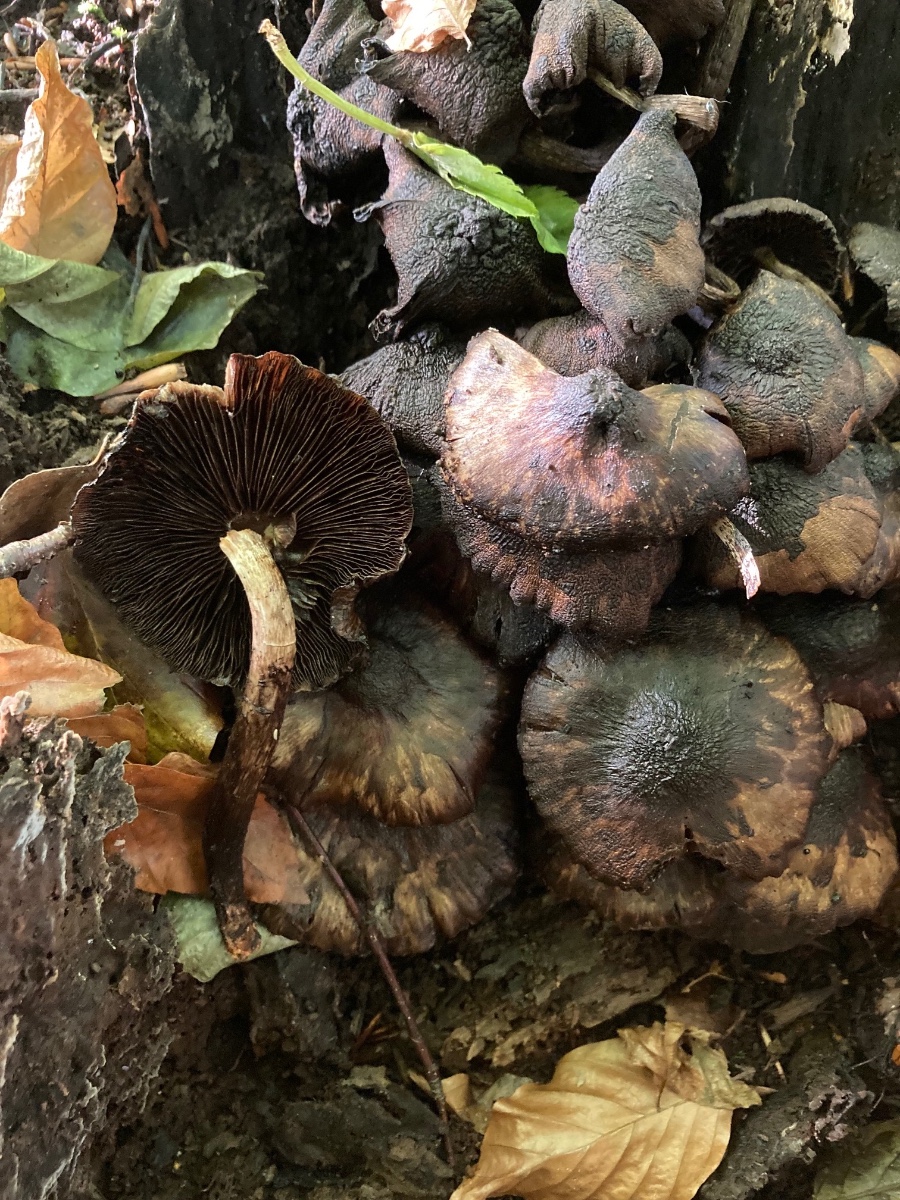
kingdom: Fungi
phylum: Basidiomycota
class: Agaricomycetes
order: Agaricales
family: Psathyrellaceae
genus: Psathyrella
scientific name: Psathyrella maculata
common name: sortskællet mørkhat
